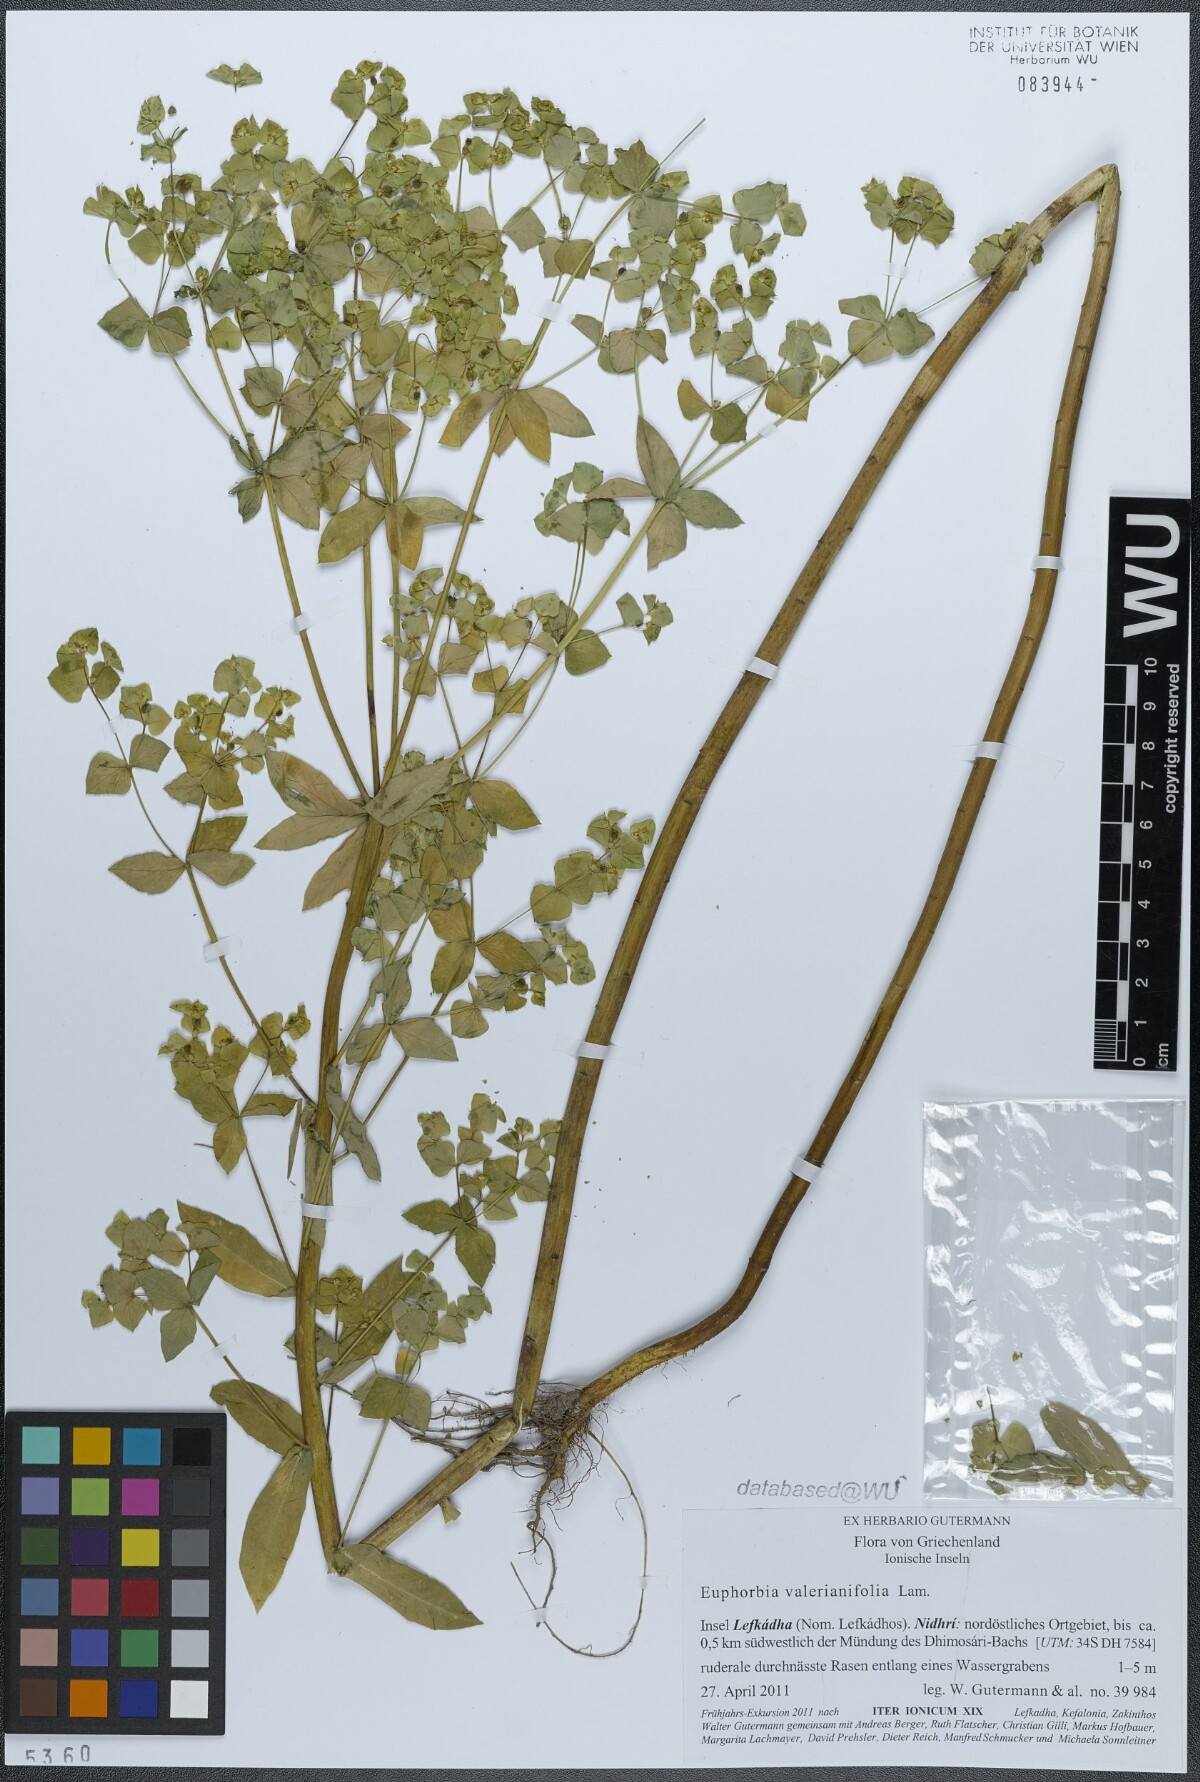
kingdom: Plantae
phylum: Tracheophyta
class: Magnoliopsida
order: Malpighiales
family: Euphorbiaceae
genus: Euphorbia
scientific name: Euphorbia platyphyllos
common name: Broad-leaved spurge
